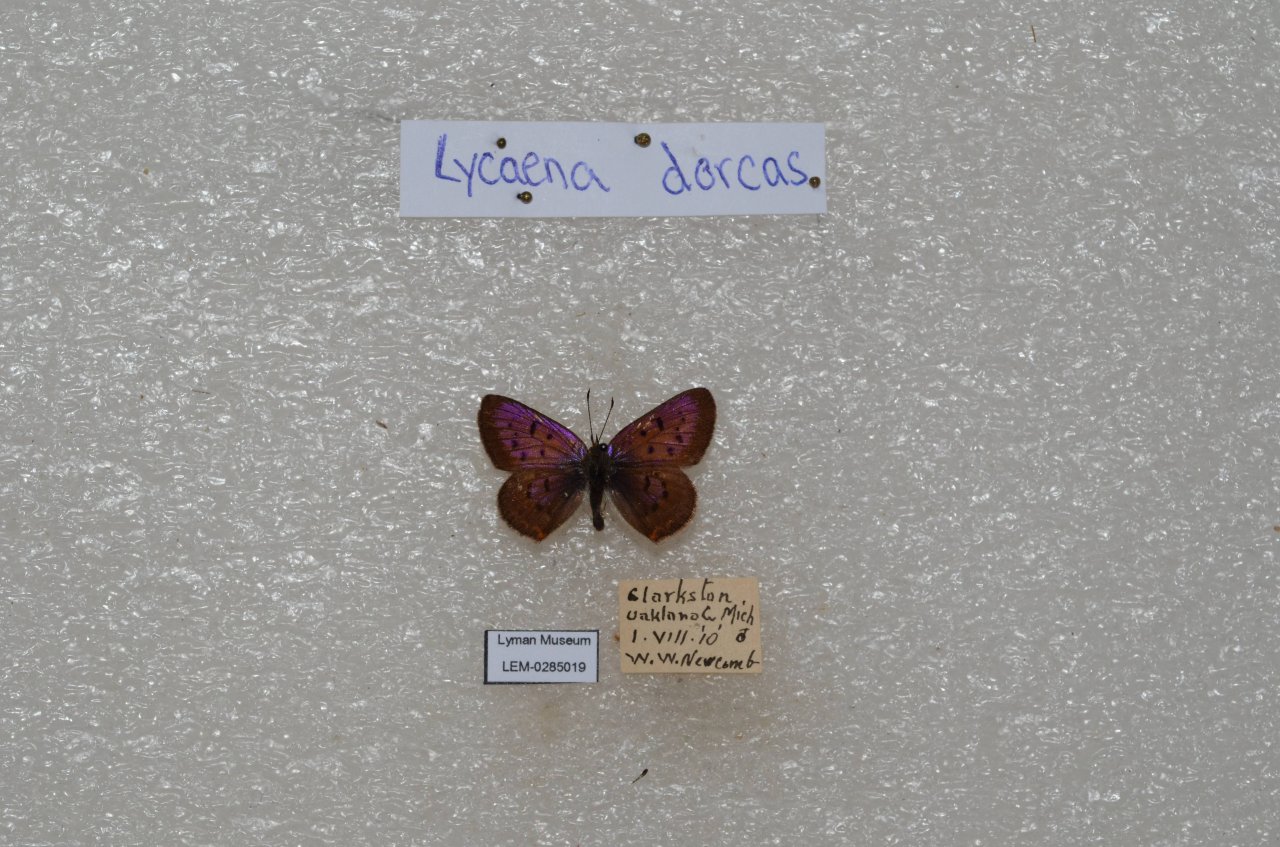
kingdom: Animalia
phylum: Arthropoda
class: Insecta
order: Lepidoptera
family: Lycaenidae
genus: Epidemia
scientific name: Epidemia dorcas
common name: Dorcas Copper
